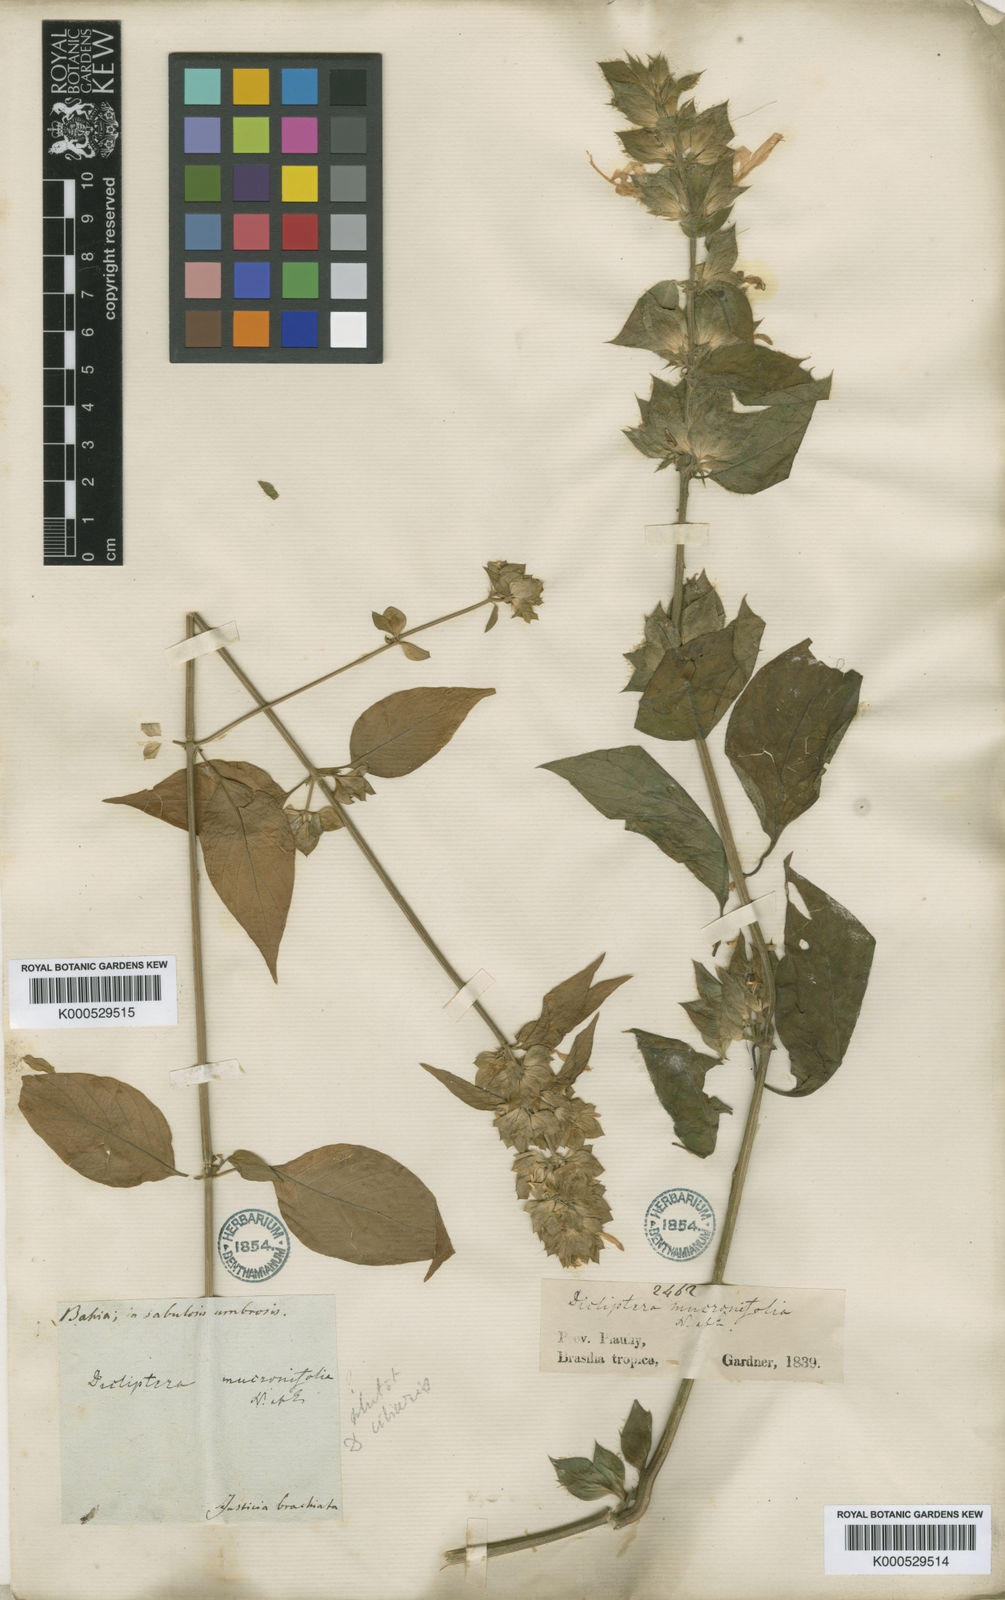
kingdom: Plantae
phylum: Tracheophyta
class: Magnoliopsida
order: Lamiales
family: Acanthaceae
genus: Dicliptera
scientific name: Dicliptera mucronifolia
